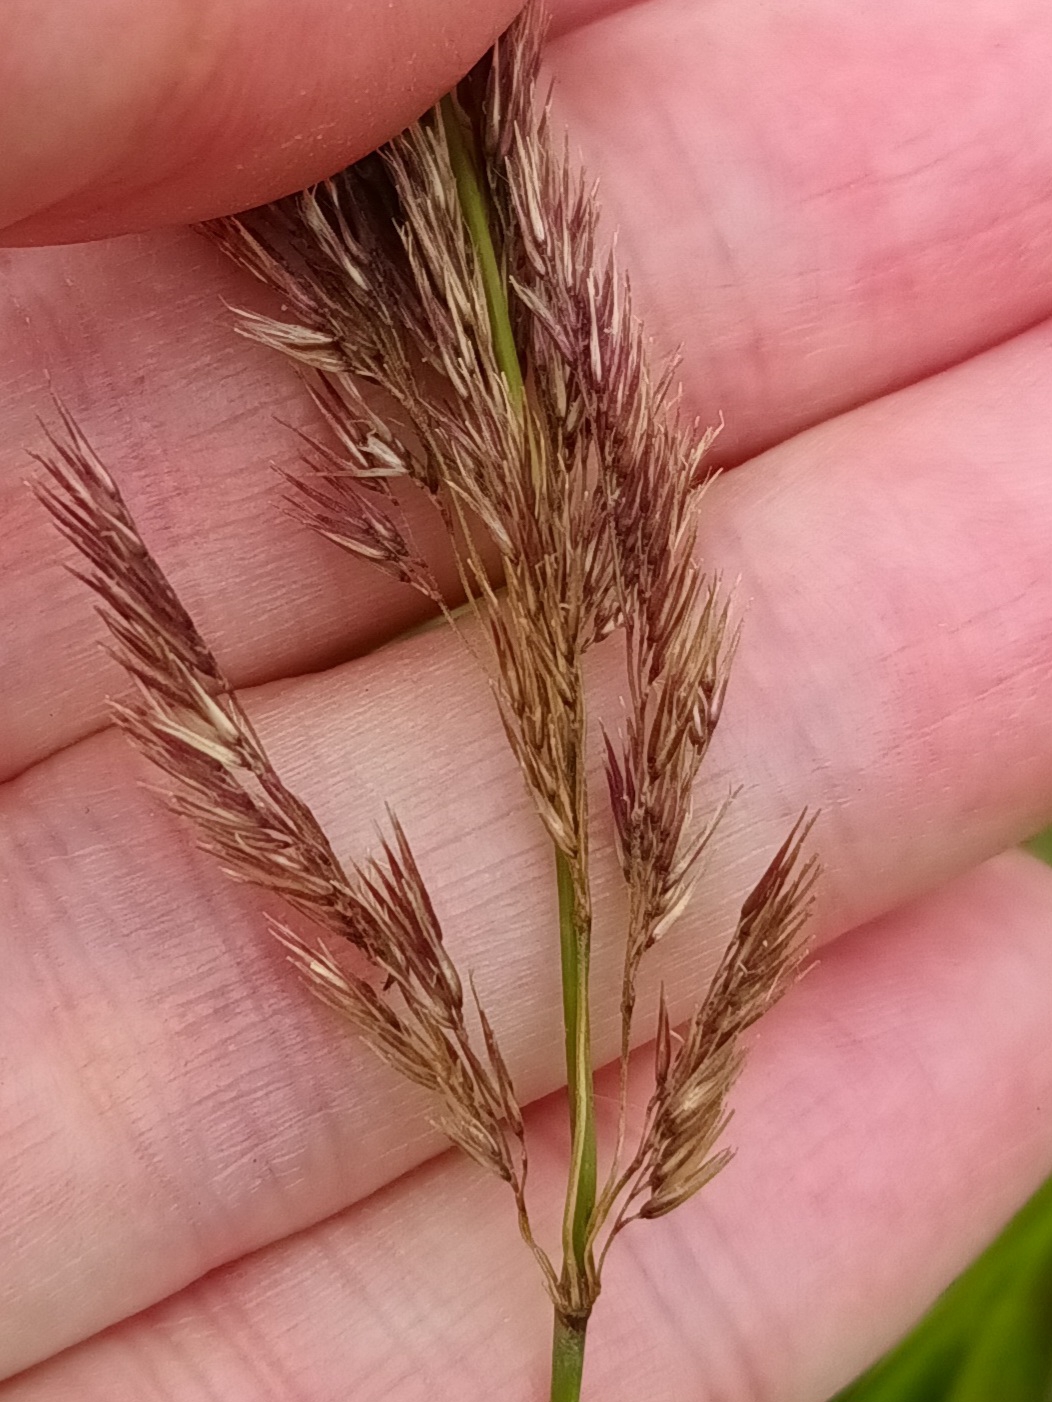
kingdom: Plantae
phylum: Tracheophyta
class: Liliopsida
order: Poales
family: Poaceae
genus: Calamagrostis
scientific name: Calamagrostis epigejos
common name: Bjerg-rørhvene
